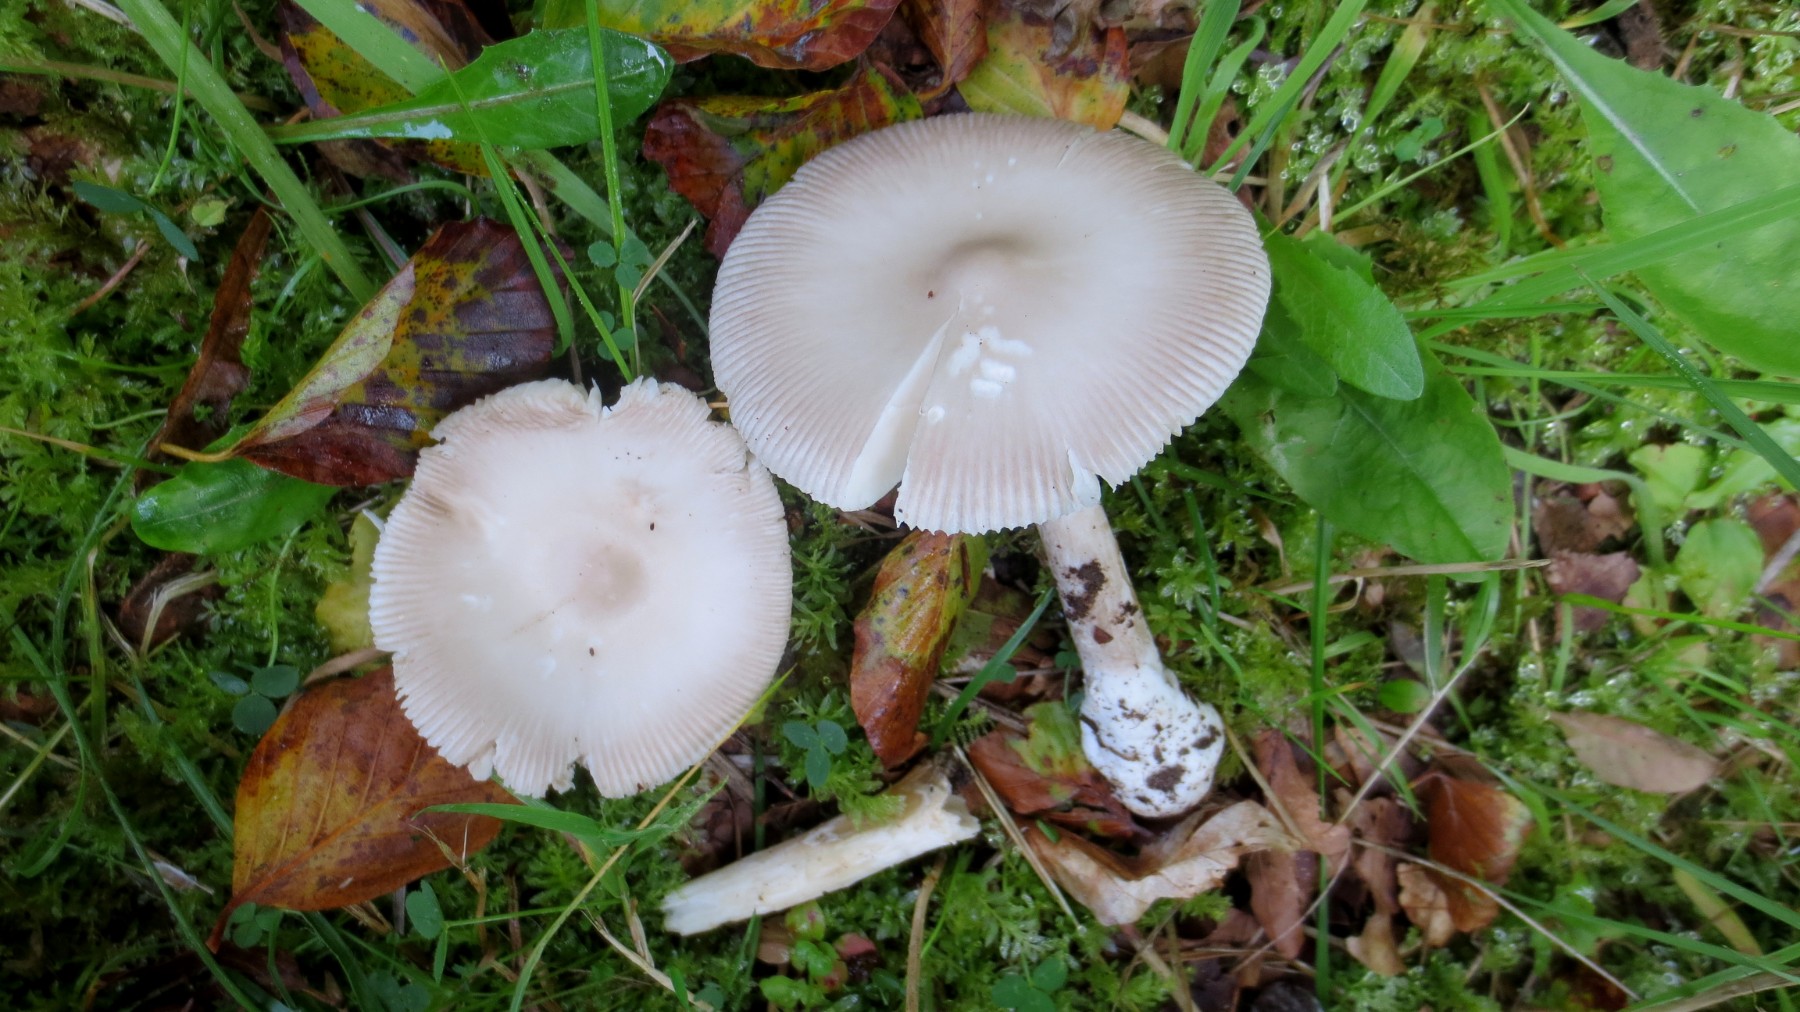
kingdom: Fungi
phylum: Basidiomycota
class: Agaricomycetes
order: Agaricales
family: Amanitaceae
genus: Amanita
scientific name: Amanita vaginata
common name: grå kam-fluesvamp
